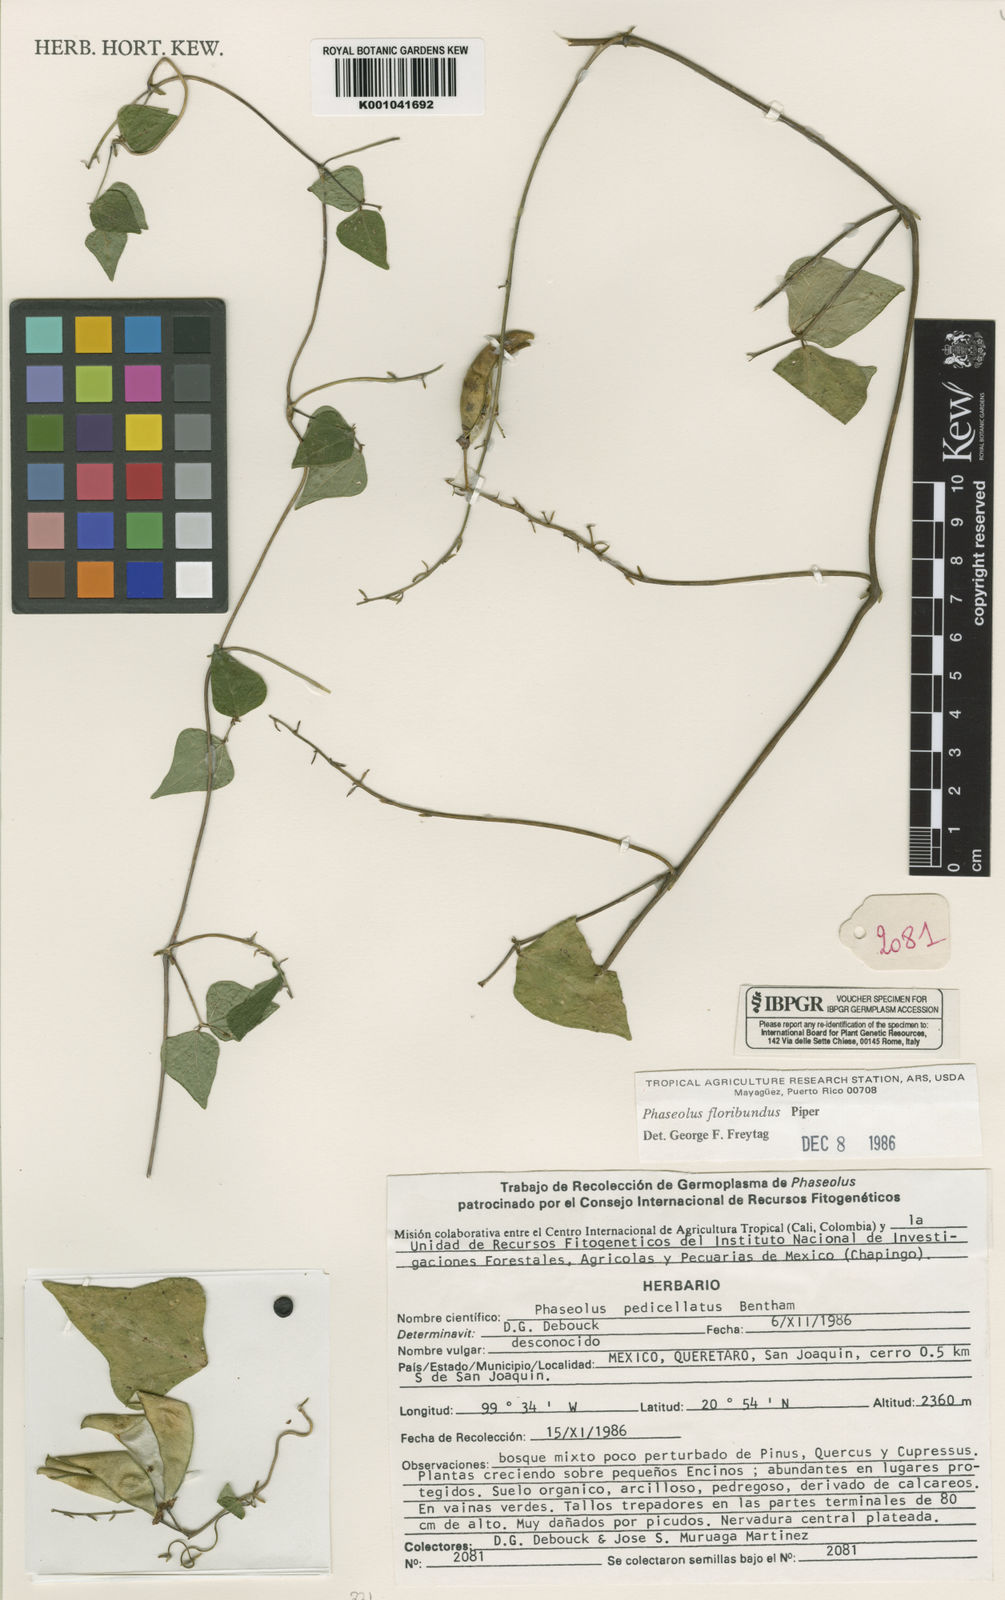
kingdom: Plantae
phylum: Tracheophyta
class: Magnoliopsida
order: Fabales
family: Fabaceae
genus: Phaseolus
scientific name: Phaseolus pedicellatus
